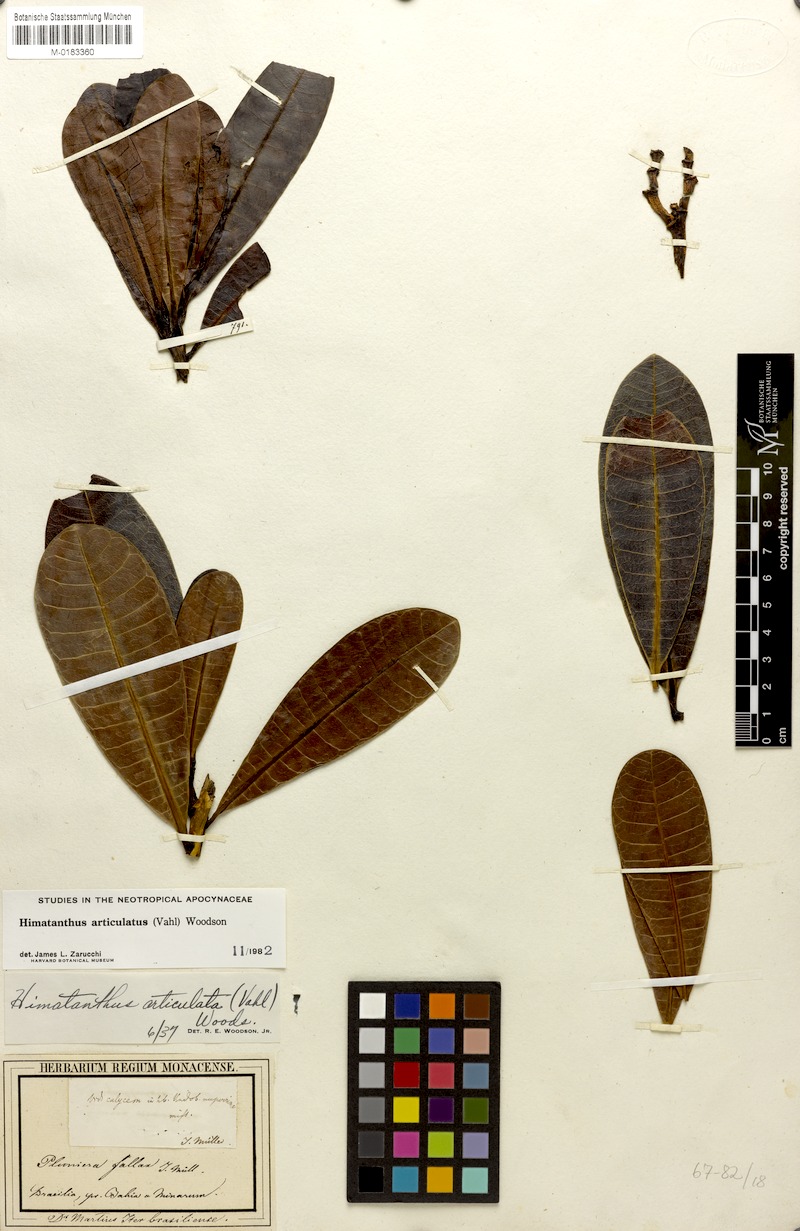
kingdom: Plantae
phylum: Tracheophyta
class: Magnoliopsida
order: Gentianales
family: Apocynaceae
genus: Himatanthus
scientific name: Himatanthus articulatus
